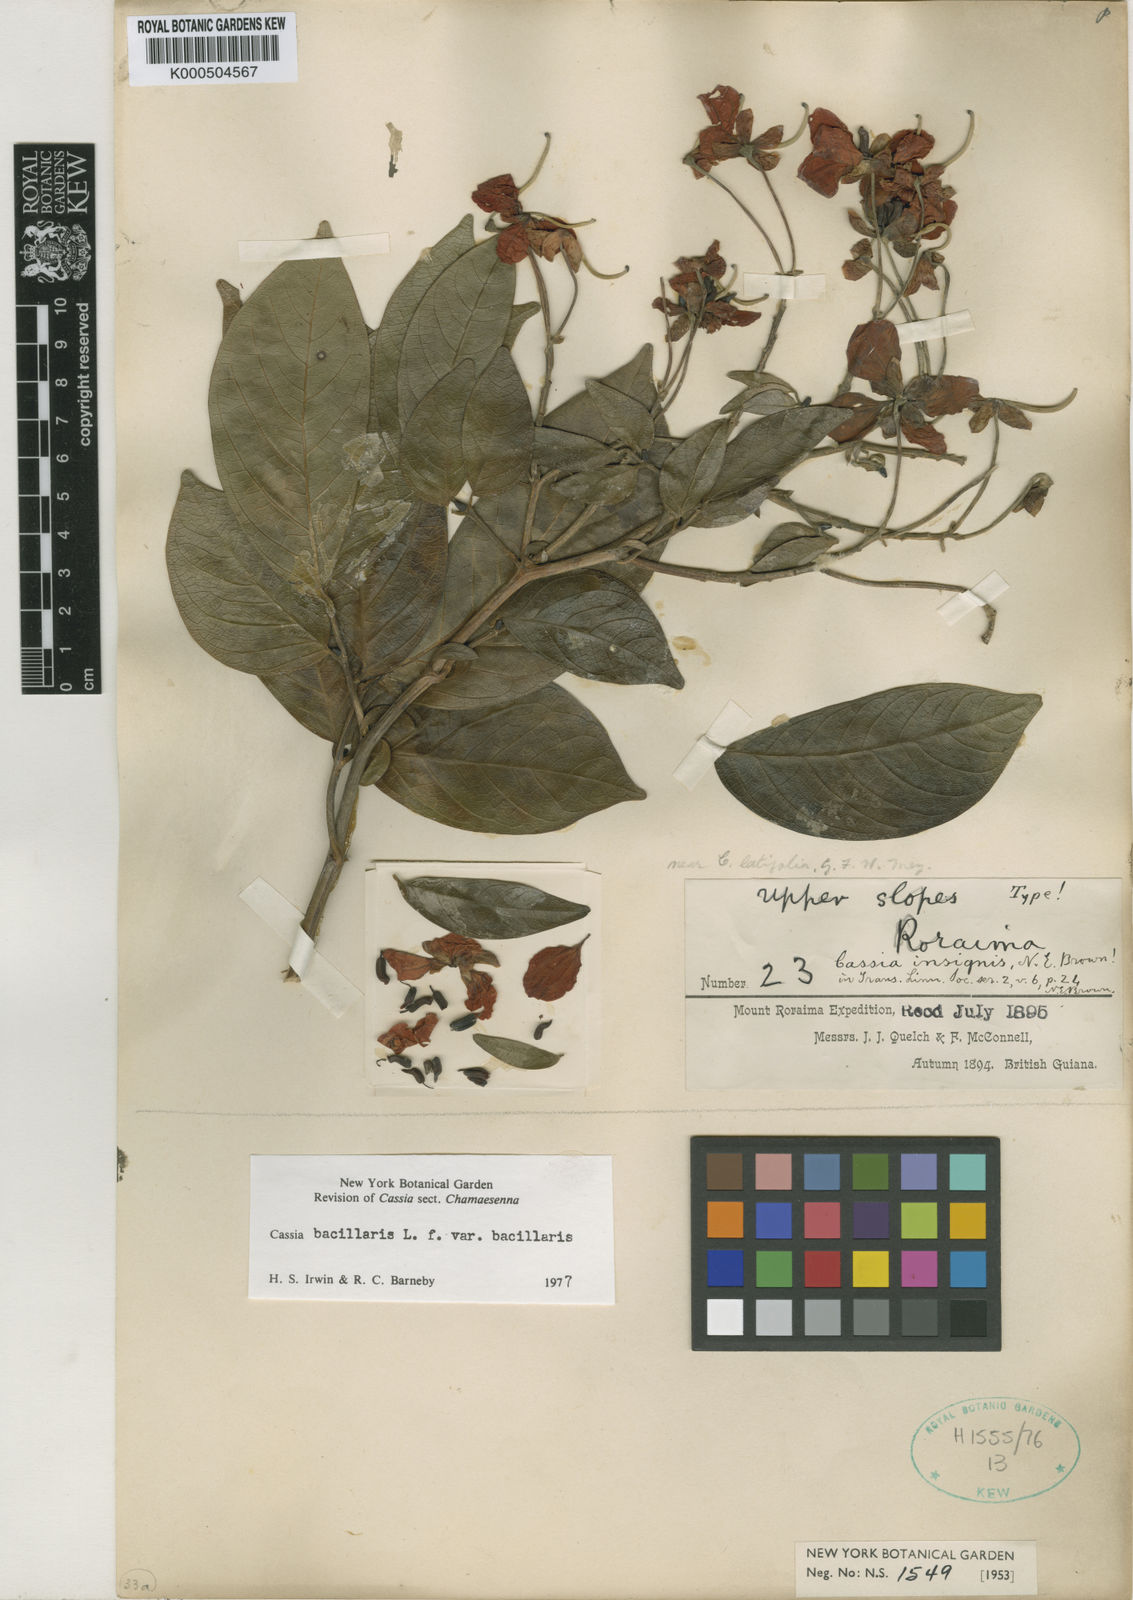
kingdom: Plantae
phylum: Tracheophyta
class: Magnoliopsida
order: Fabales
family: Fabaceae
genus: Senna
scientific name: Senna bacillaris
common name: West indian showertree
